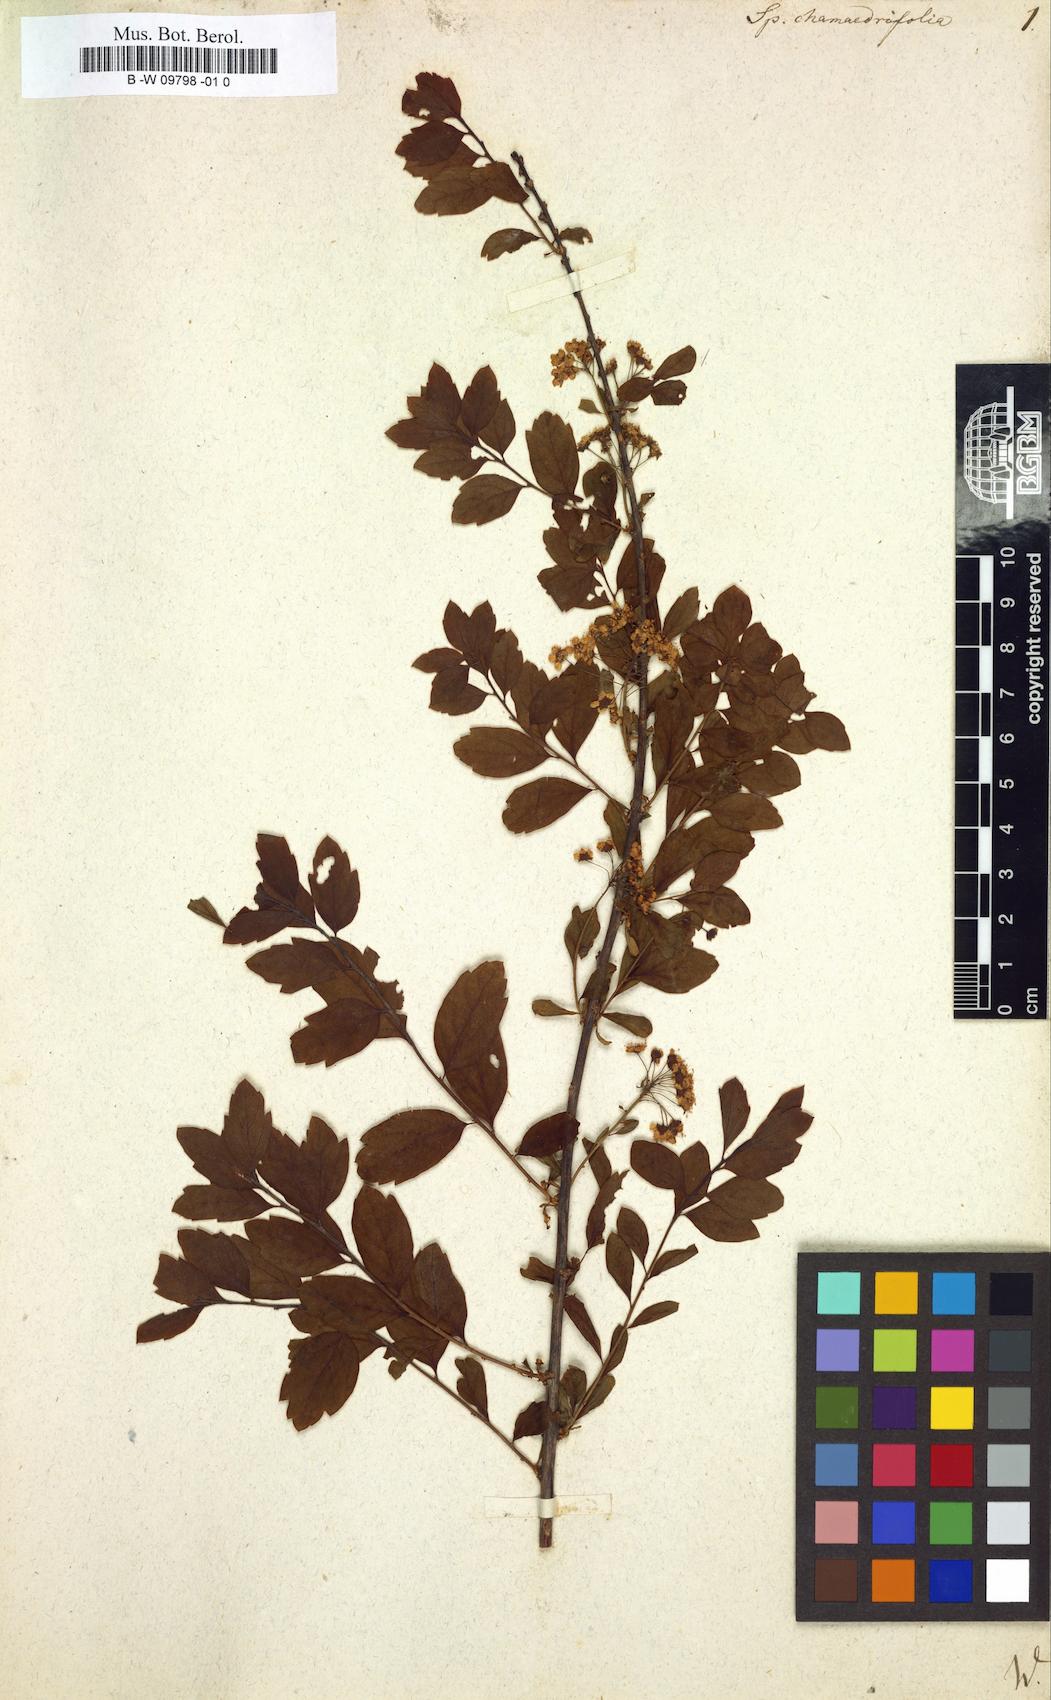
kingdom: Plantae
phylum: Tracheophyta
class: Magnoliopsida
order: Rosales
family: Rosaceae
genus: Spiraea
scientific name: Spiraea
